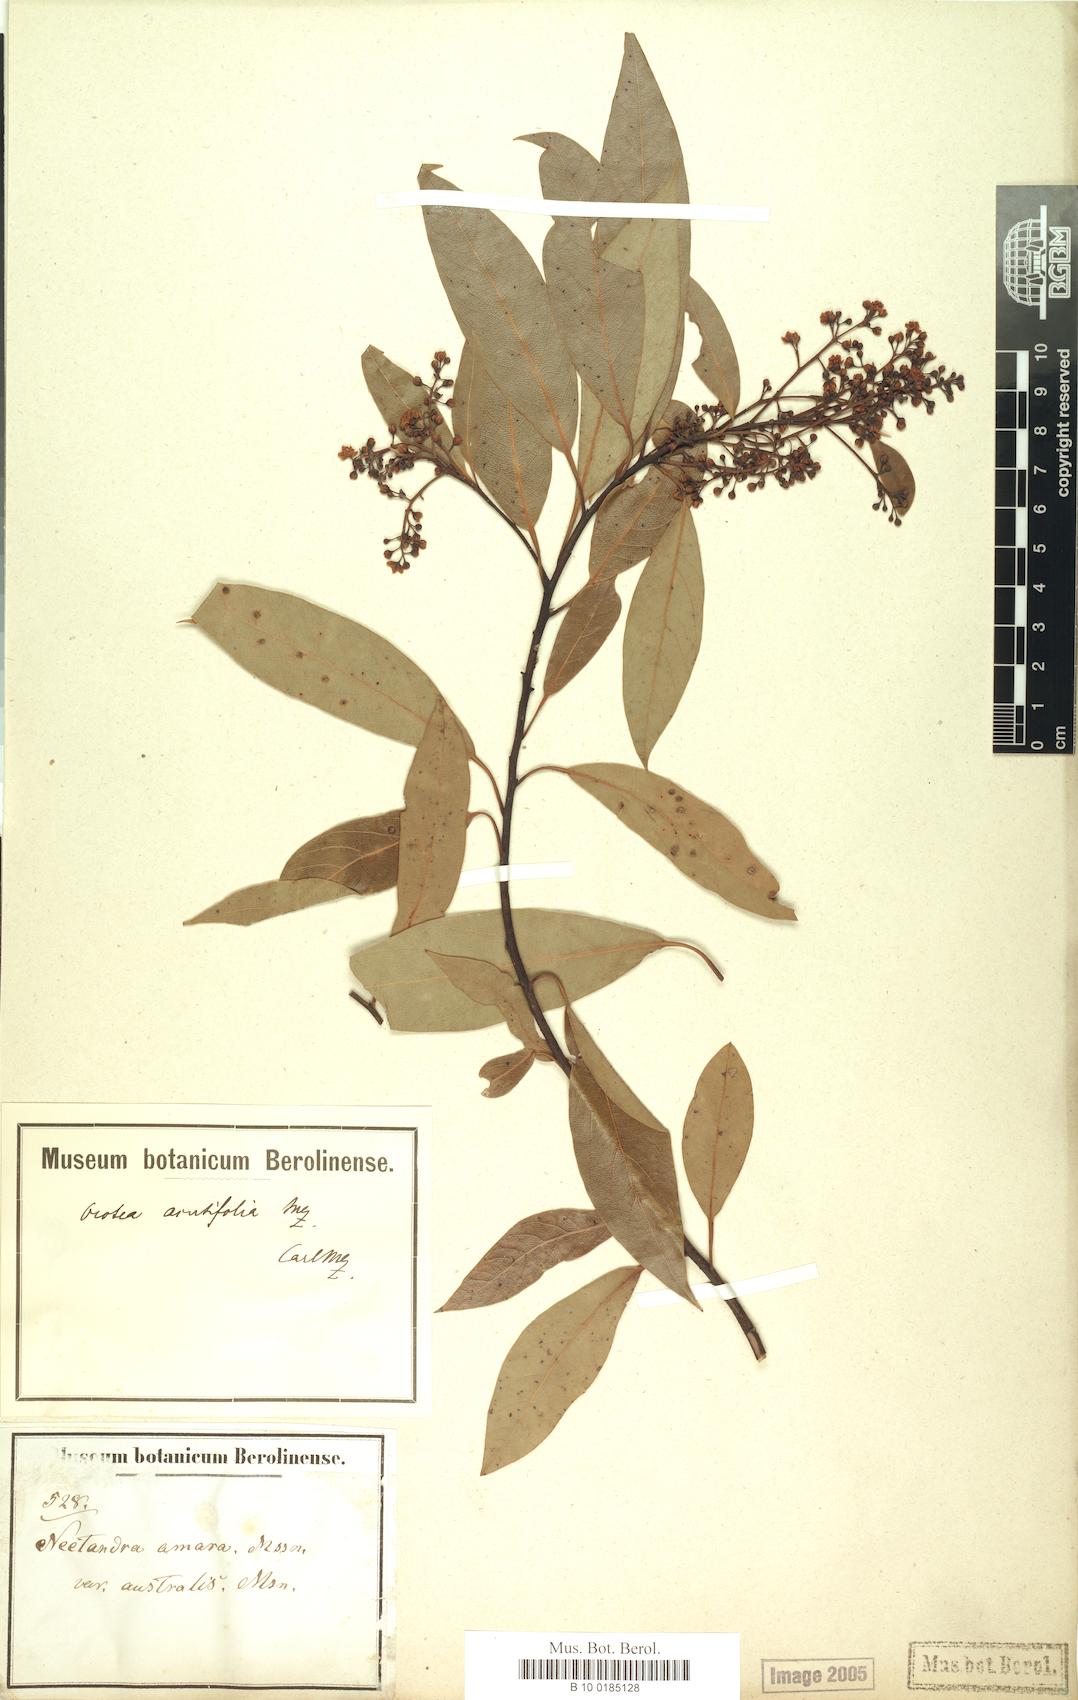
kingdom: Plantae
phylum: Tracheophyta
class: Magnoliopsida
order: Laurales
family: Lauraceae
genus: Ocotea
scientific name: Ocotea acutifolia
